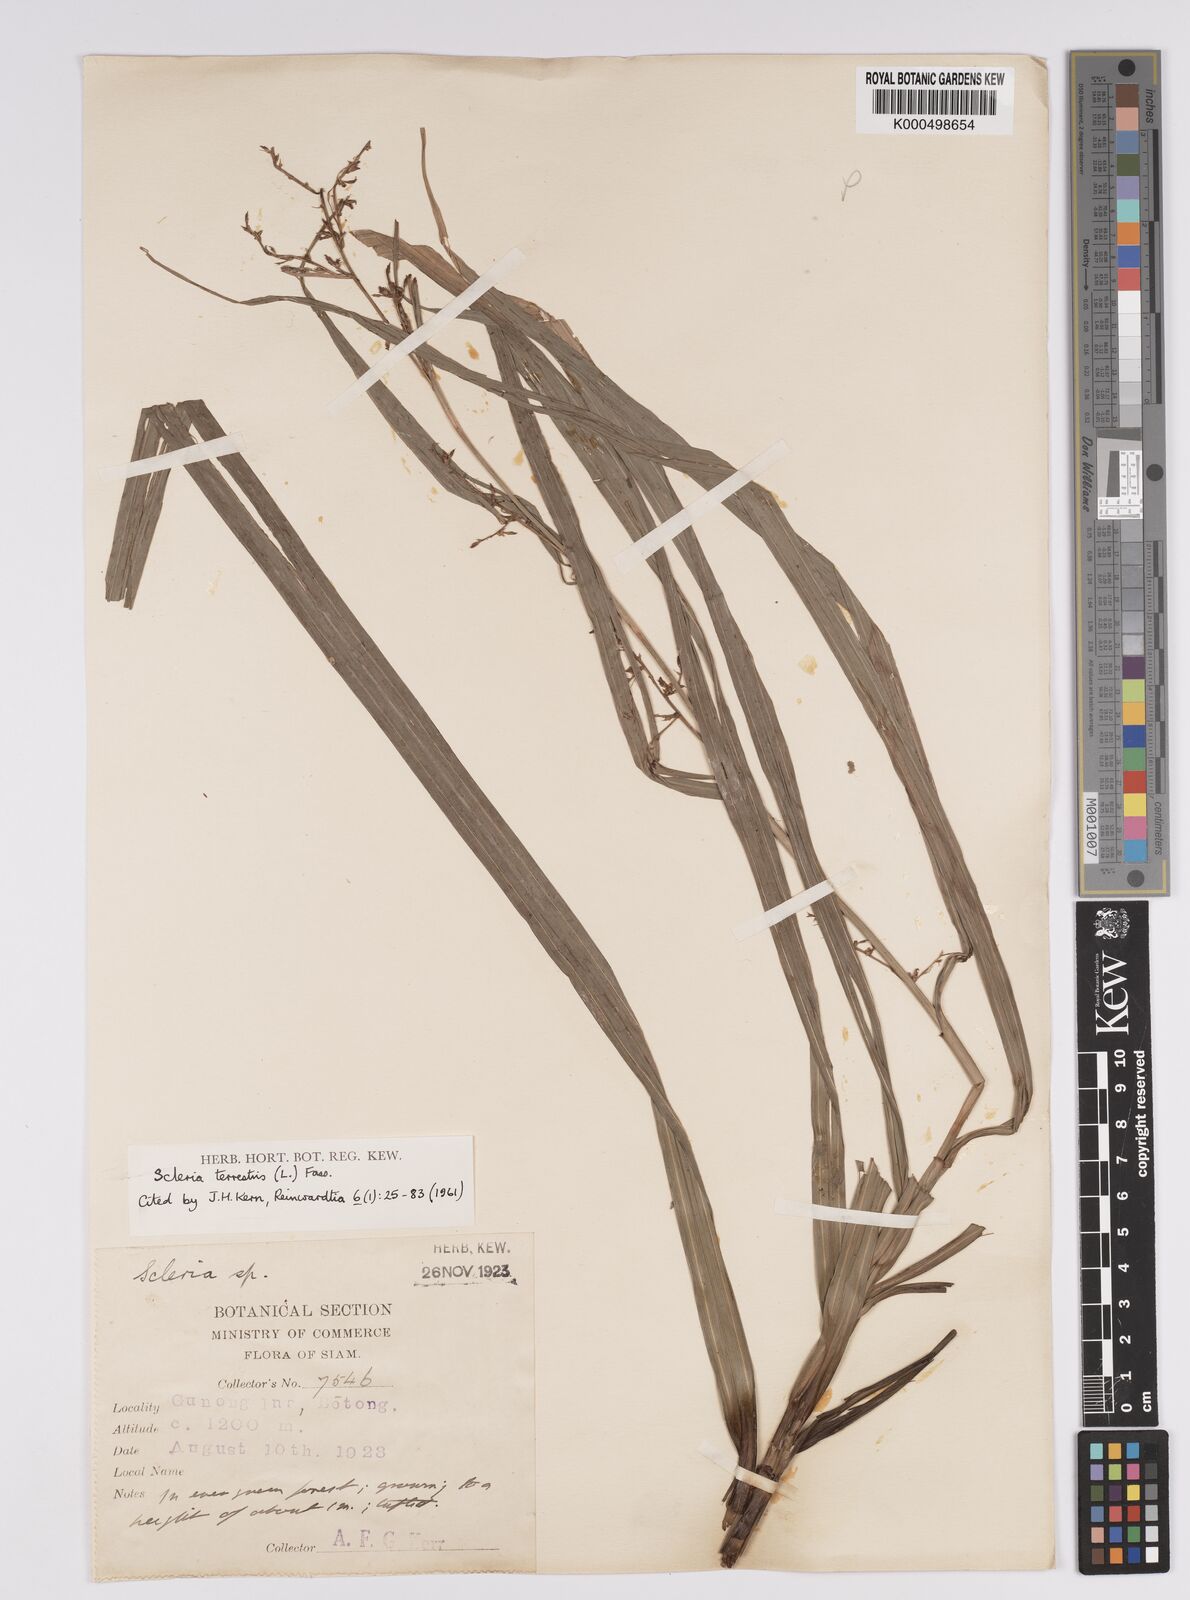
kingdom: Plantae
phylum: Tracheophyta
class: Liliopsida
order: Poales
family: Cyperaceae
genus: Scleria
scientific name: Scleria terrestris
